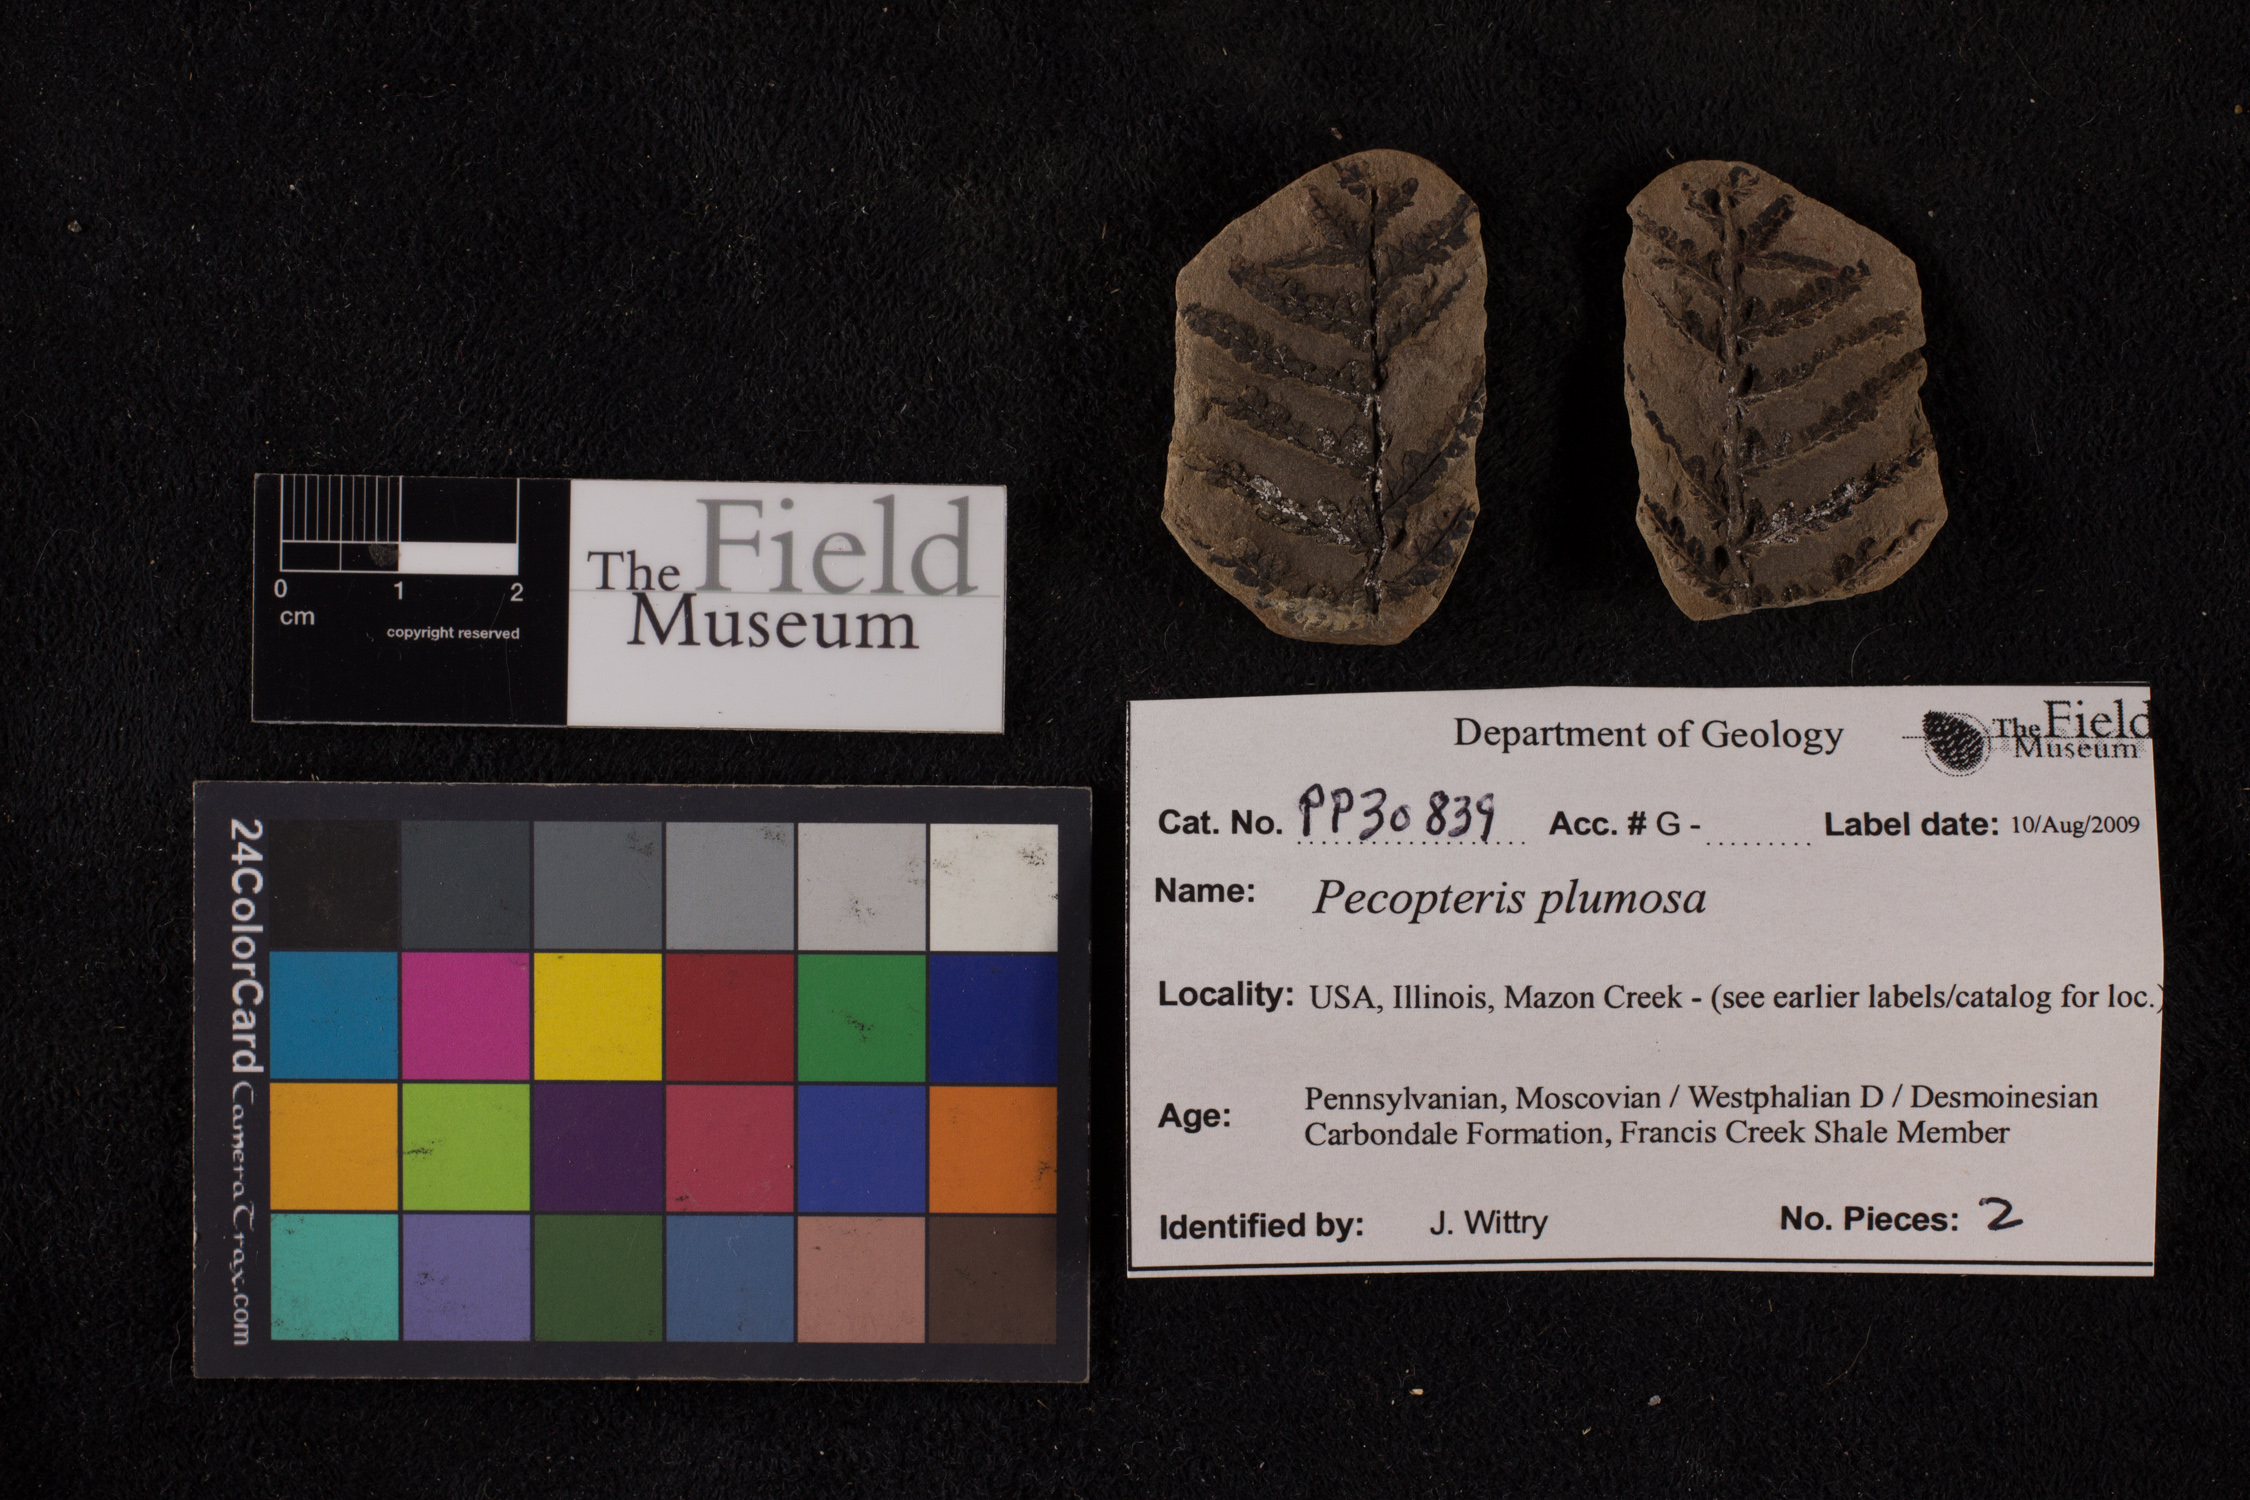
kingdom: Plantae
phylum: Tracheophyta
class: Polypodiopsida
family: Tedeleaceae
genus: Senftenbergia
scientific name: Senftenbergia
